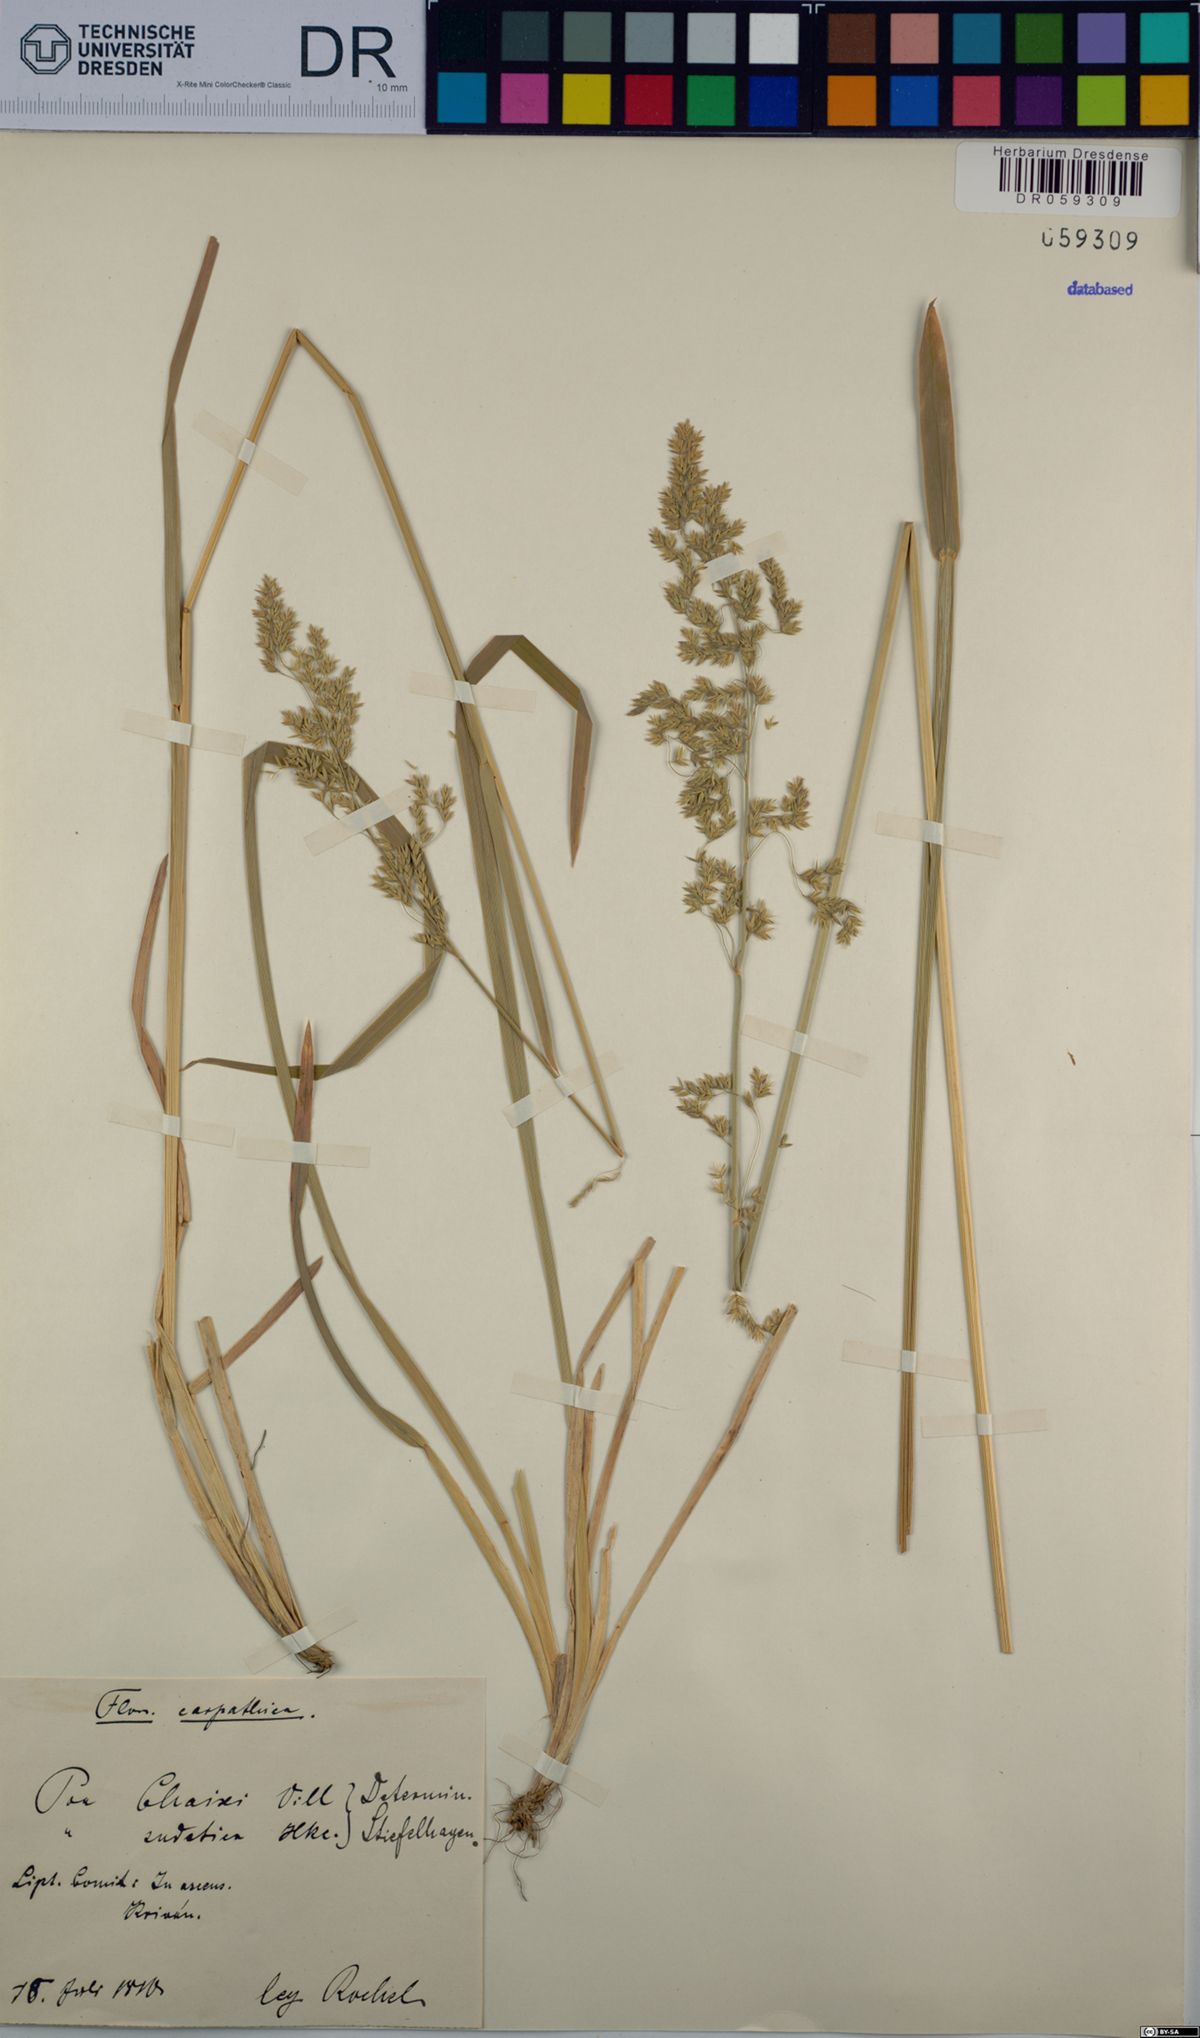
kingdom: Plantae
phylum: Tracheophyta
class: Liliopsida
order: Poales
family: Poaceae
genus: Poa
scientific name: Poa chaixii
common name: Broad-leaved meadow-grass
